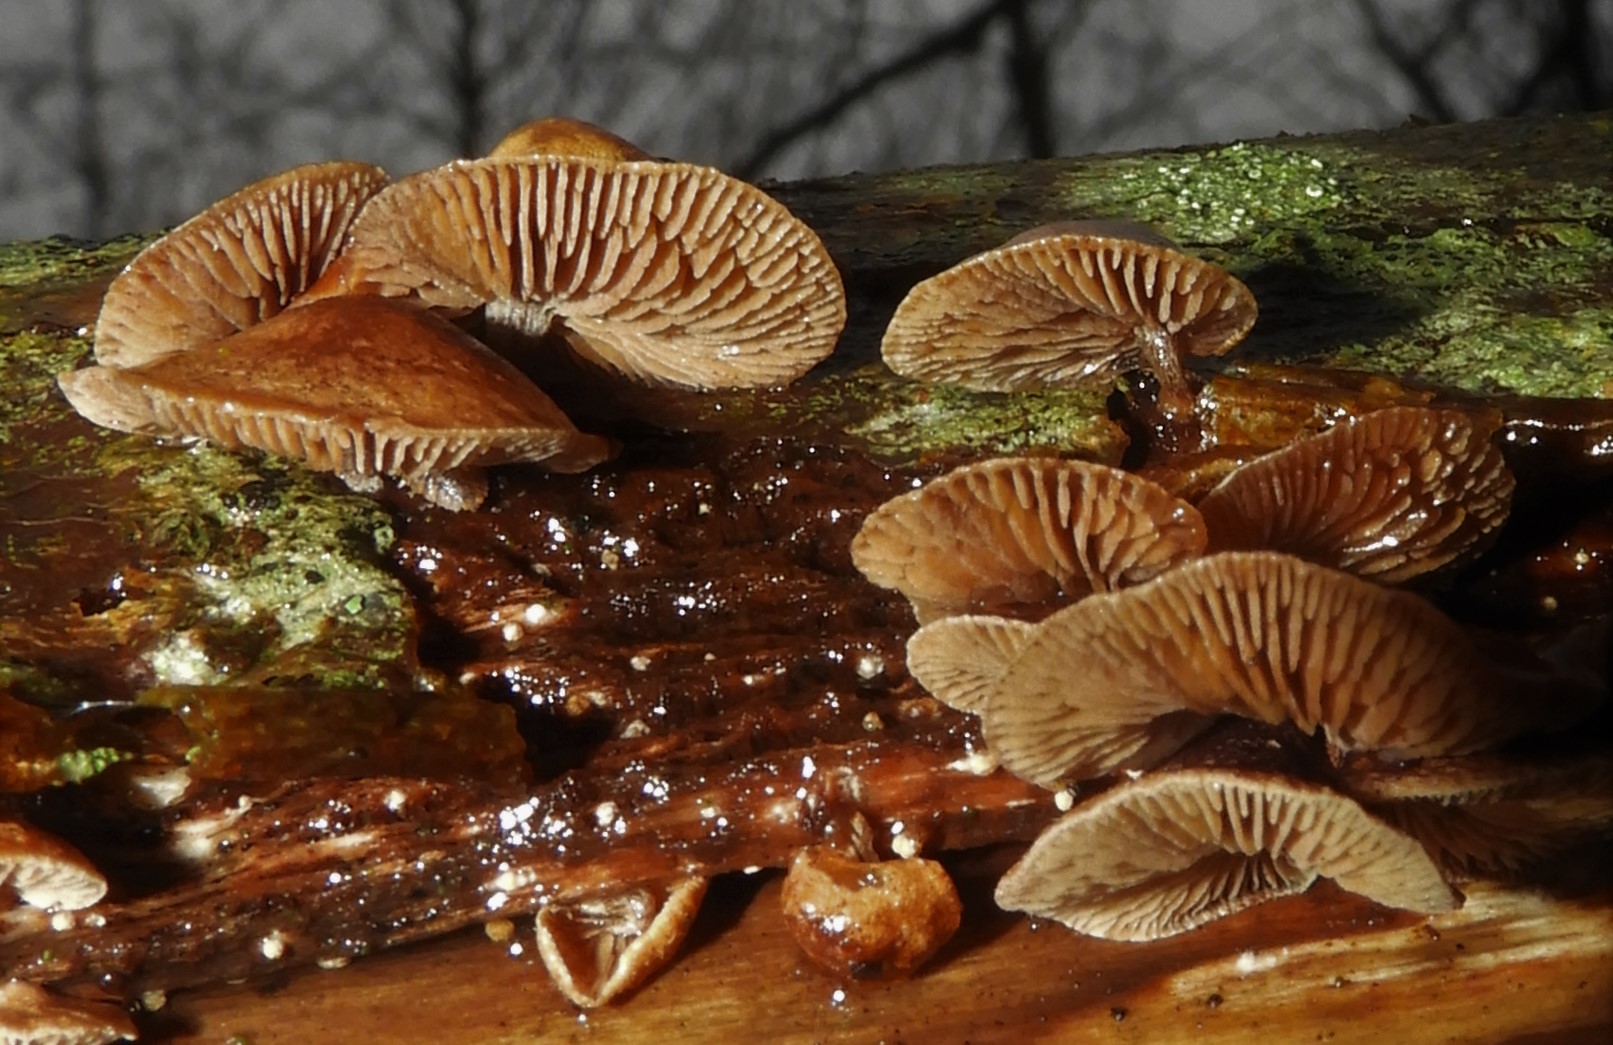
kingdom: Fungi
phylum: Basidiomycota
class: Agaricomycetes
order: Agaricales
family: Strophariaceae
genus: Deconica
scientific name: Deconica horizontalis
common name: ved-stråhat
